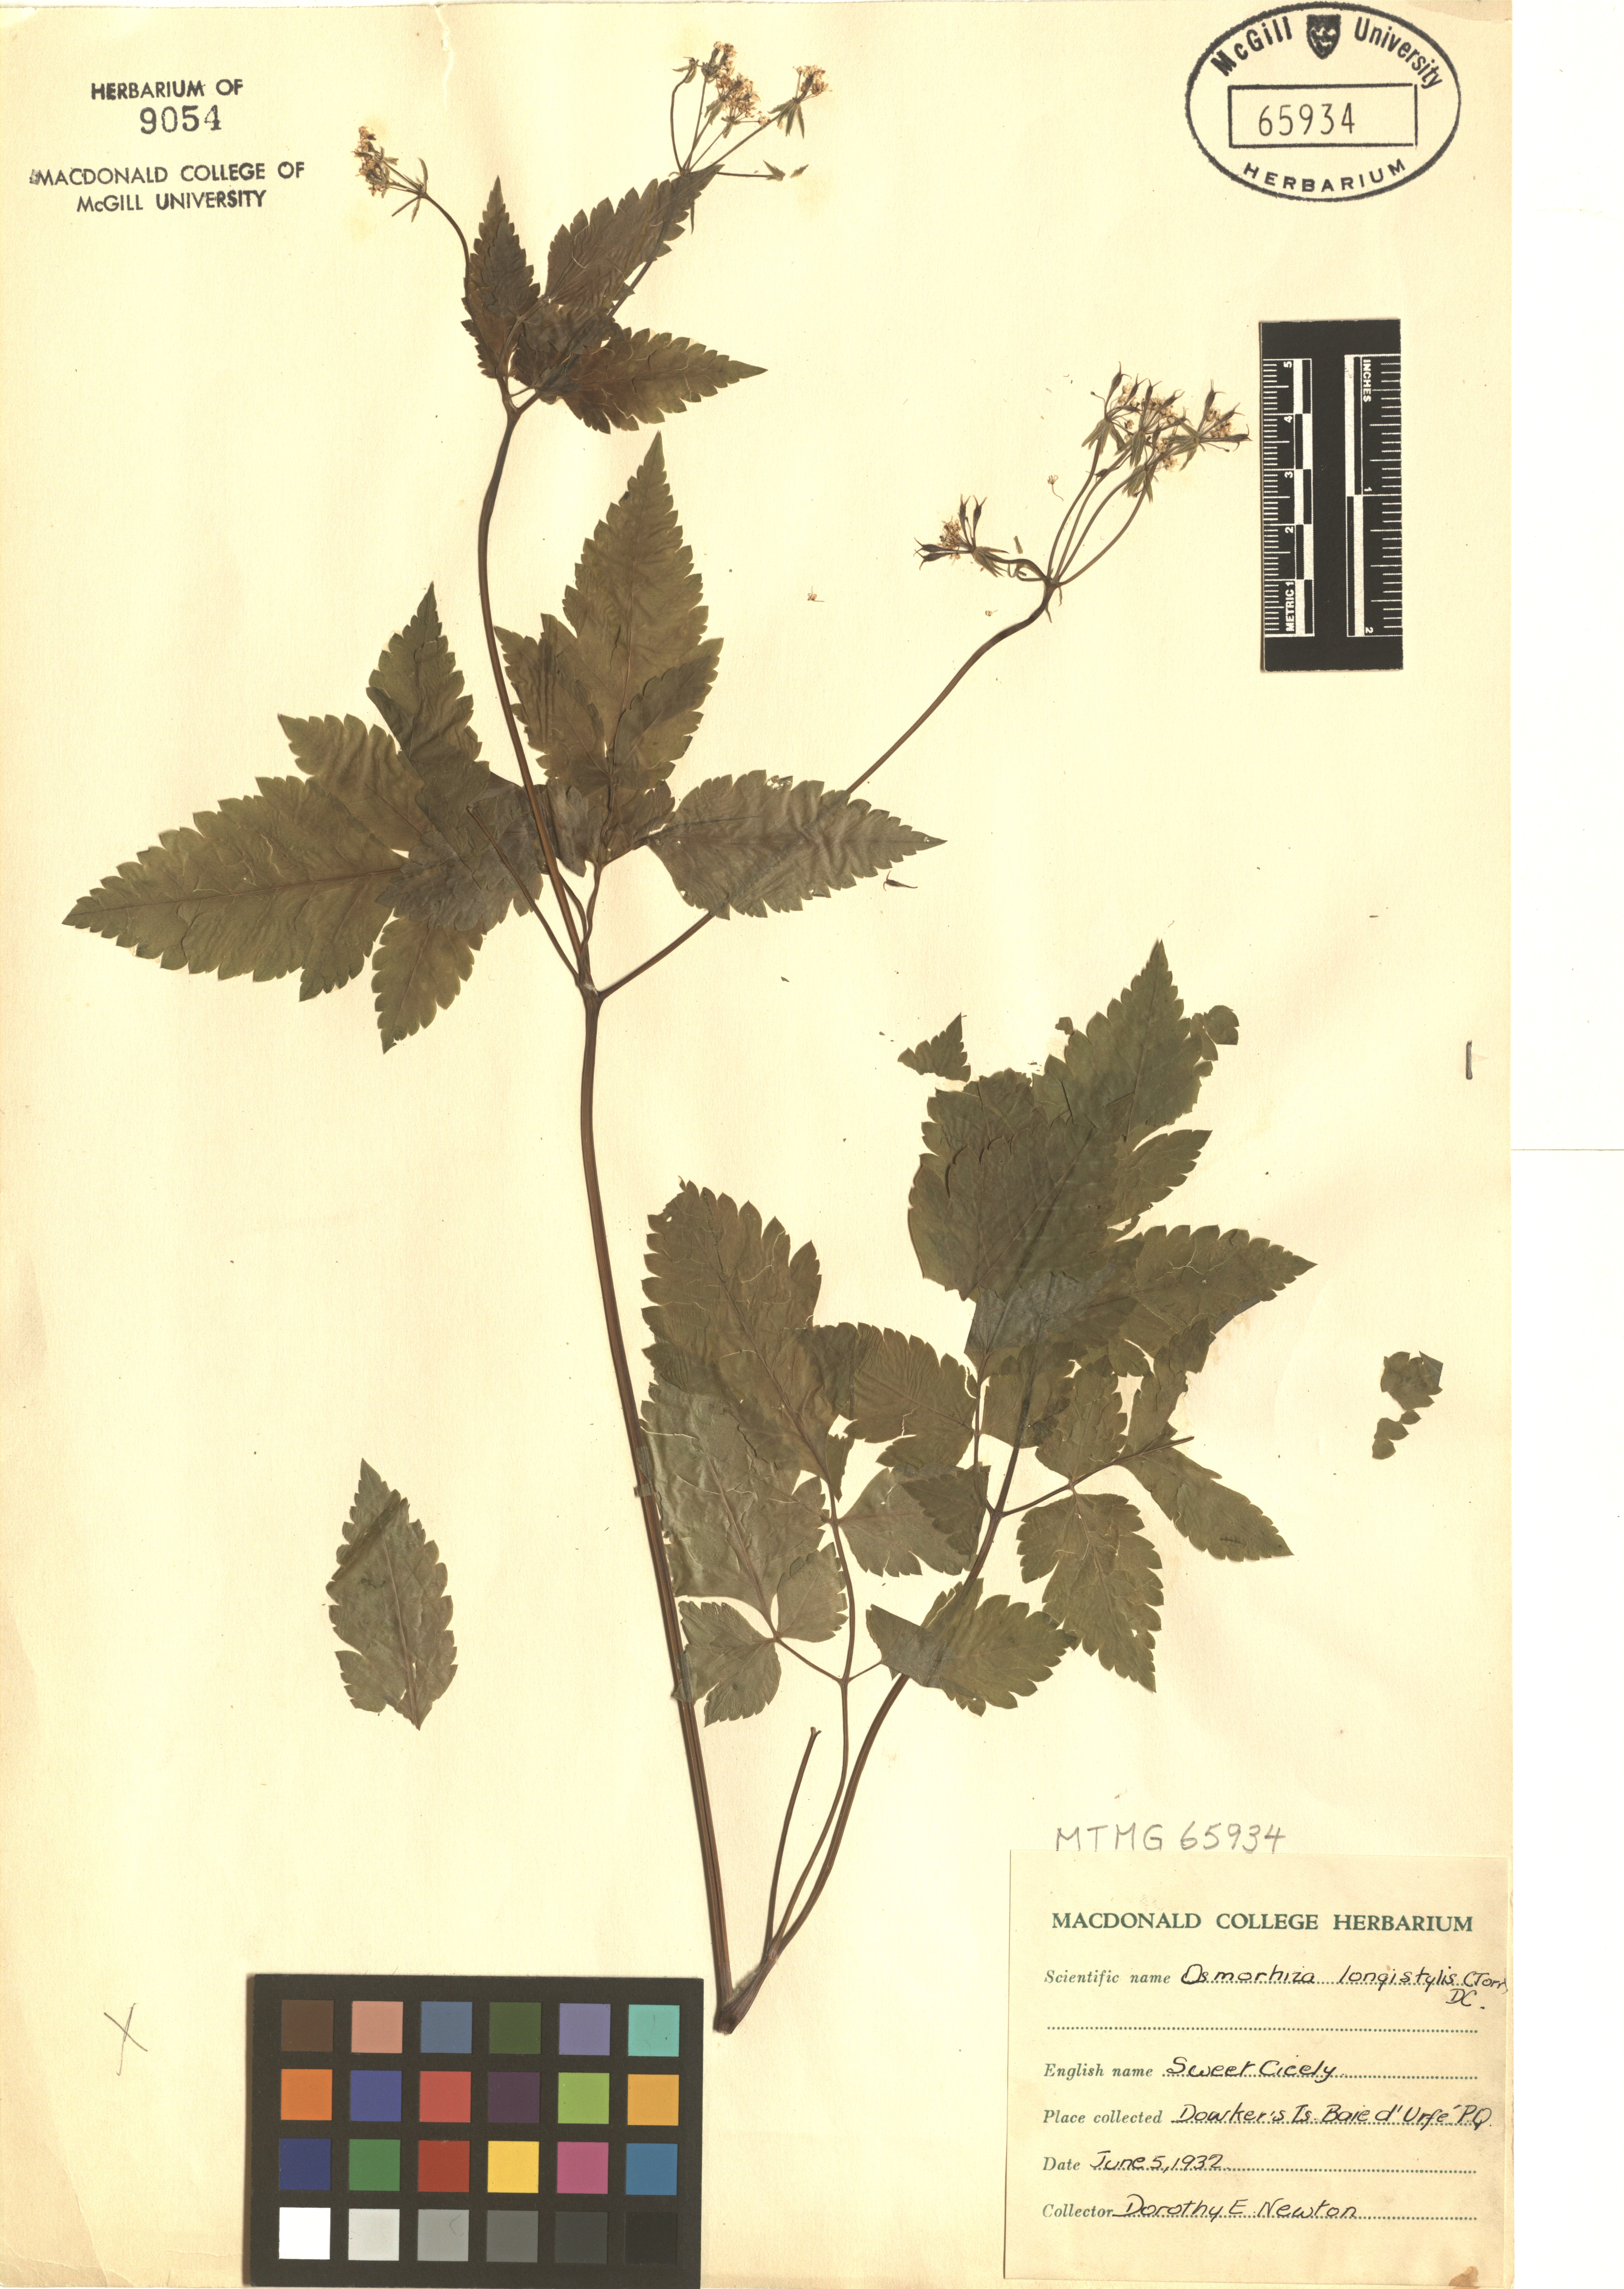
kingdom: Plantae
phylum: Tracheophyta
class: Magnoliopsida
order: Apiales
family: Apiaceae
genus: Osmorhiza
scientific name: Osmorhiza longistylis
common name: Smooth sweet cicely
